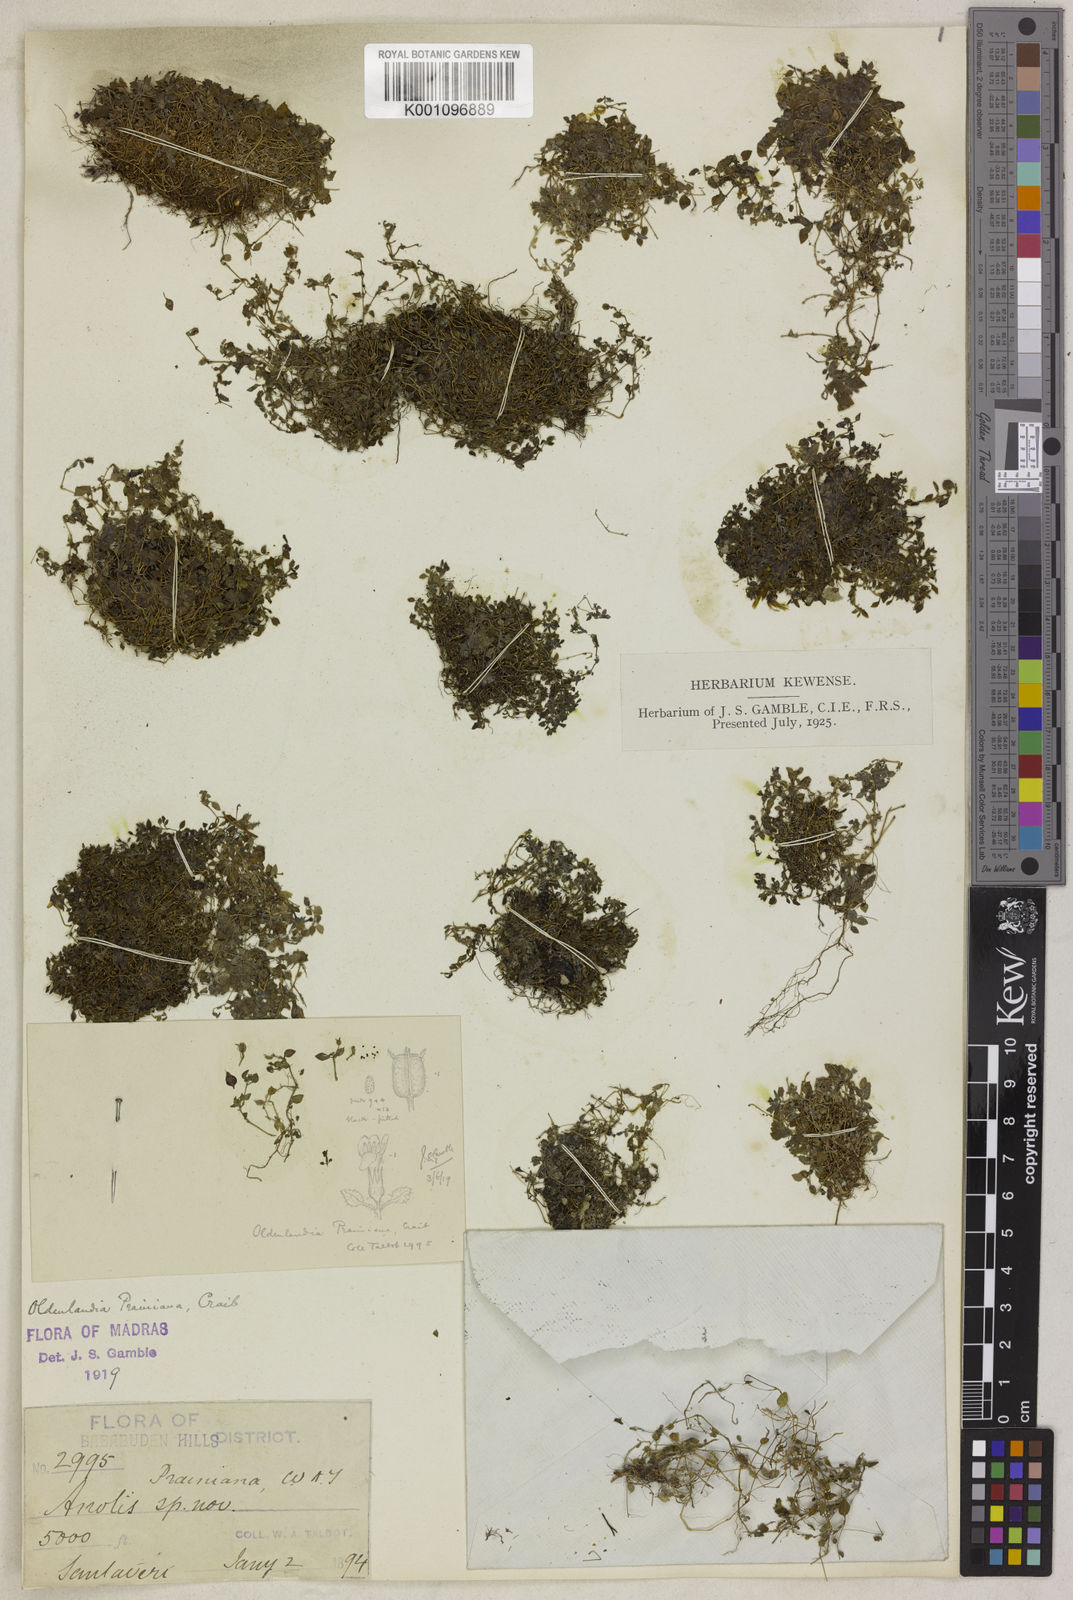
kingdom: Plantae
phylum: Tracheophyta
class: Magnoliopsida
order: Gentianales
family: Rubiaceae
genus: Neanotis
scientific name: Neanotis prainiana
